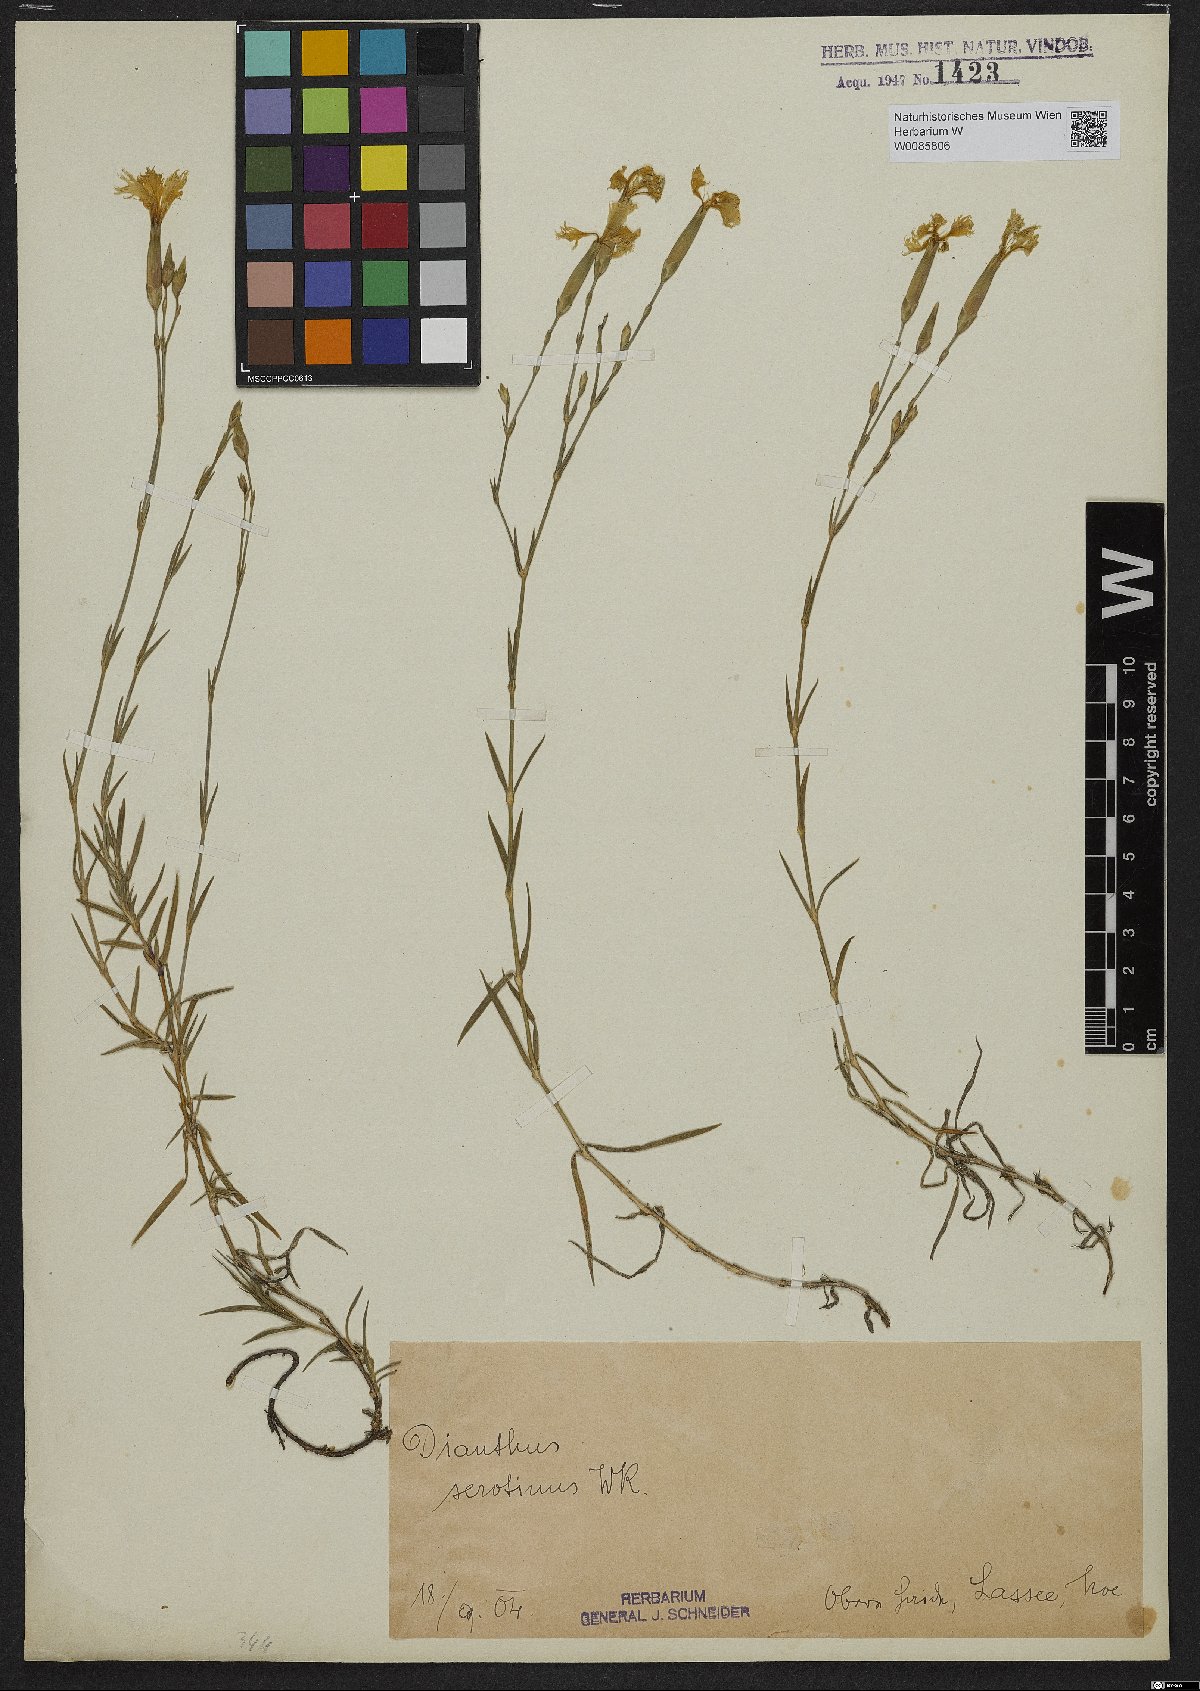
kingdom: Plantae
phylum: Tracheophyta
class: Magnoliopsida
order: Caryophyllales
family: Caryophyllaceae
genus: Dianthus
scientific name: Dianthus serotinus
